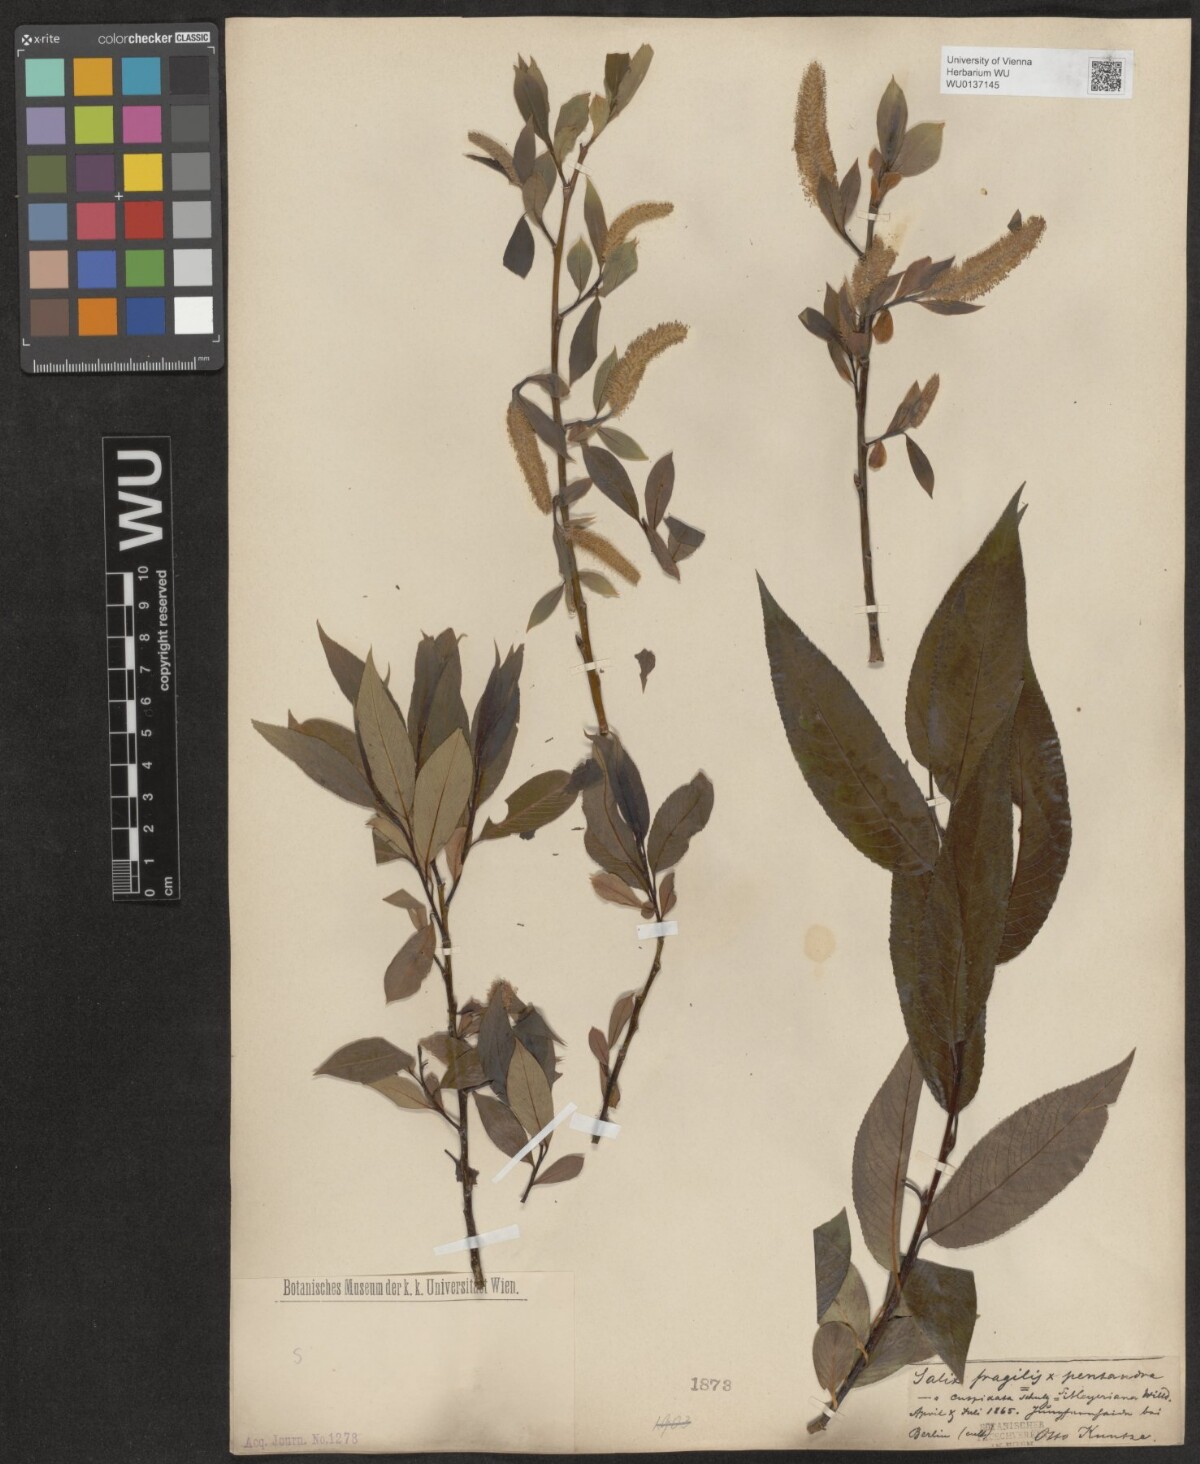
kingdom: Plantae
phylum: Tracheophyta
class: Magnoliopsida
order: Malpighiales
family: Salicaceae
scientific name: Salicaceae
